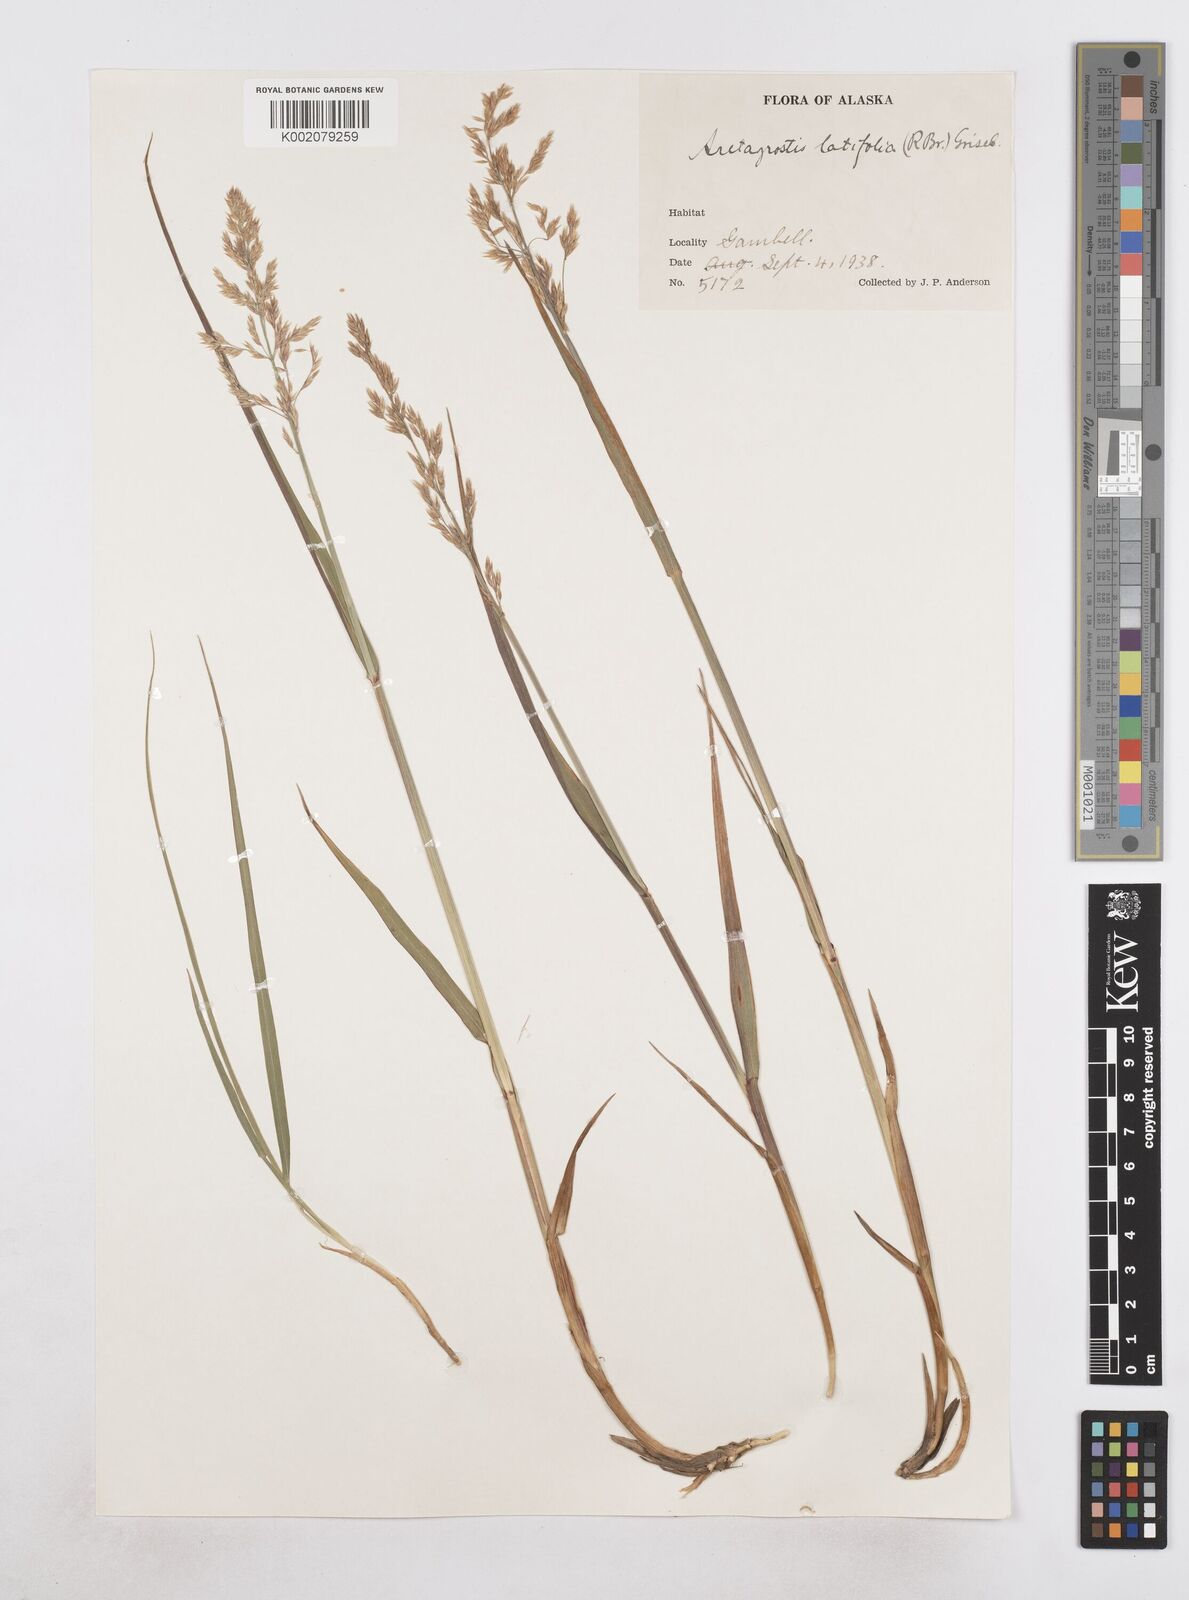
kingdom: Plantae
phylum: Tracheophyta
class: Liliopsida
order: Poales
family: Poaceae
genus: Arctagrostis
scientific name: Arctagrostis latifolia
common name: Arctic grass
